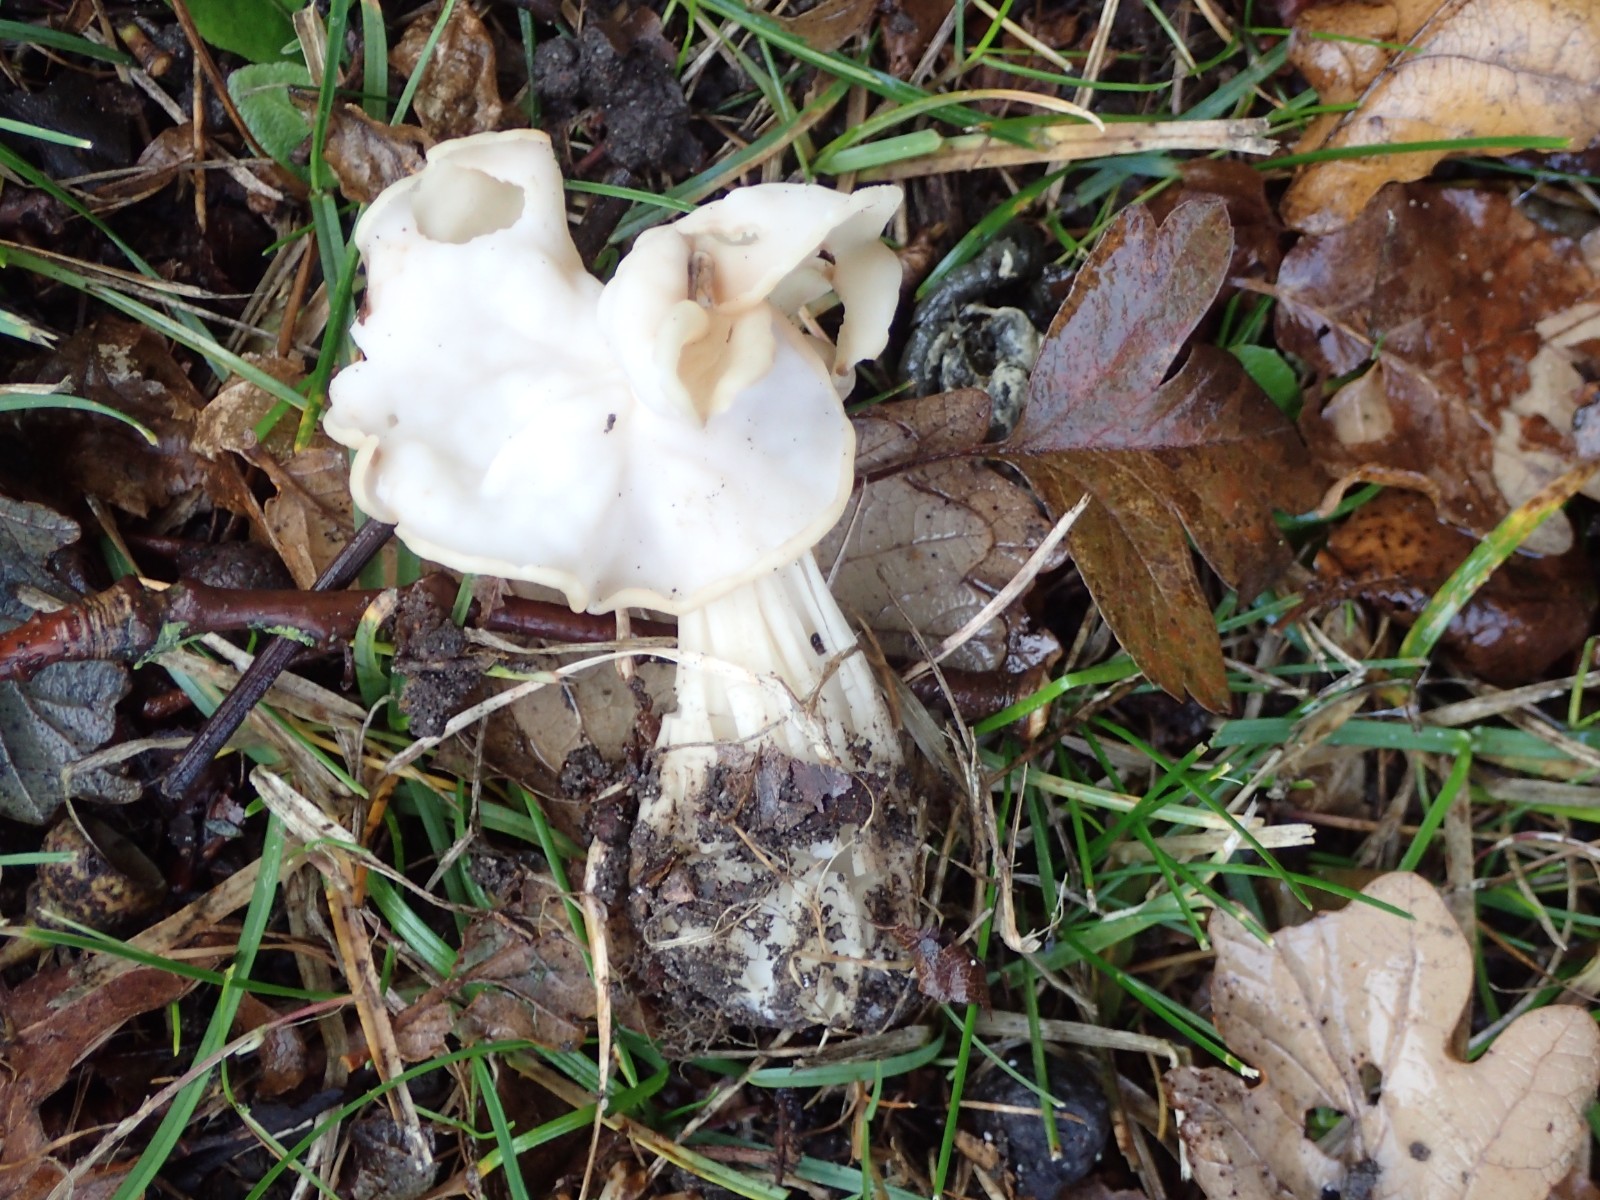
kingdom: Fungi
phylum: Ascomycota
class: Pezizomycetes
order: Pezizales
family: Helvellaceae
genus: Helvella
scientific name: Helvella crispa
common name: kruset foldhat
